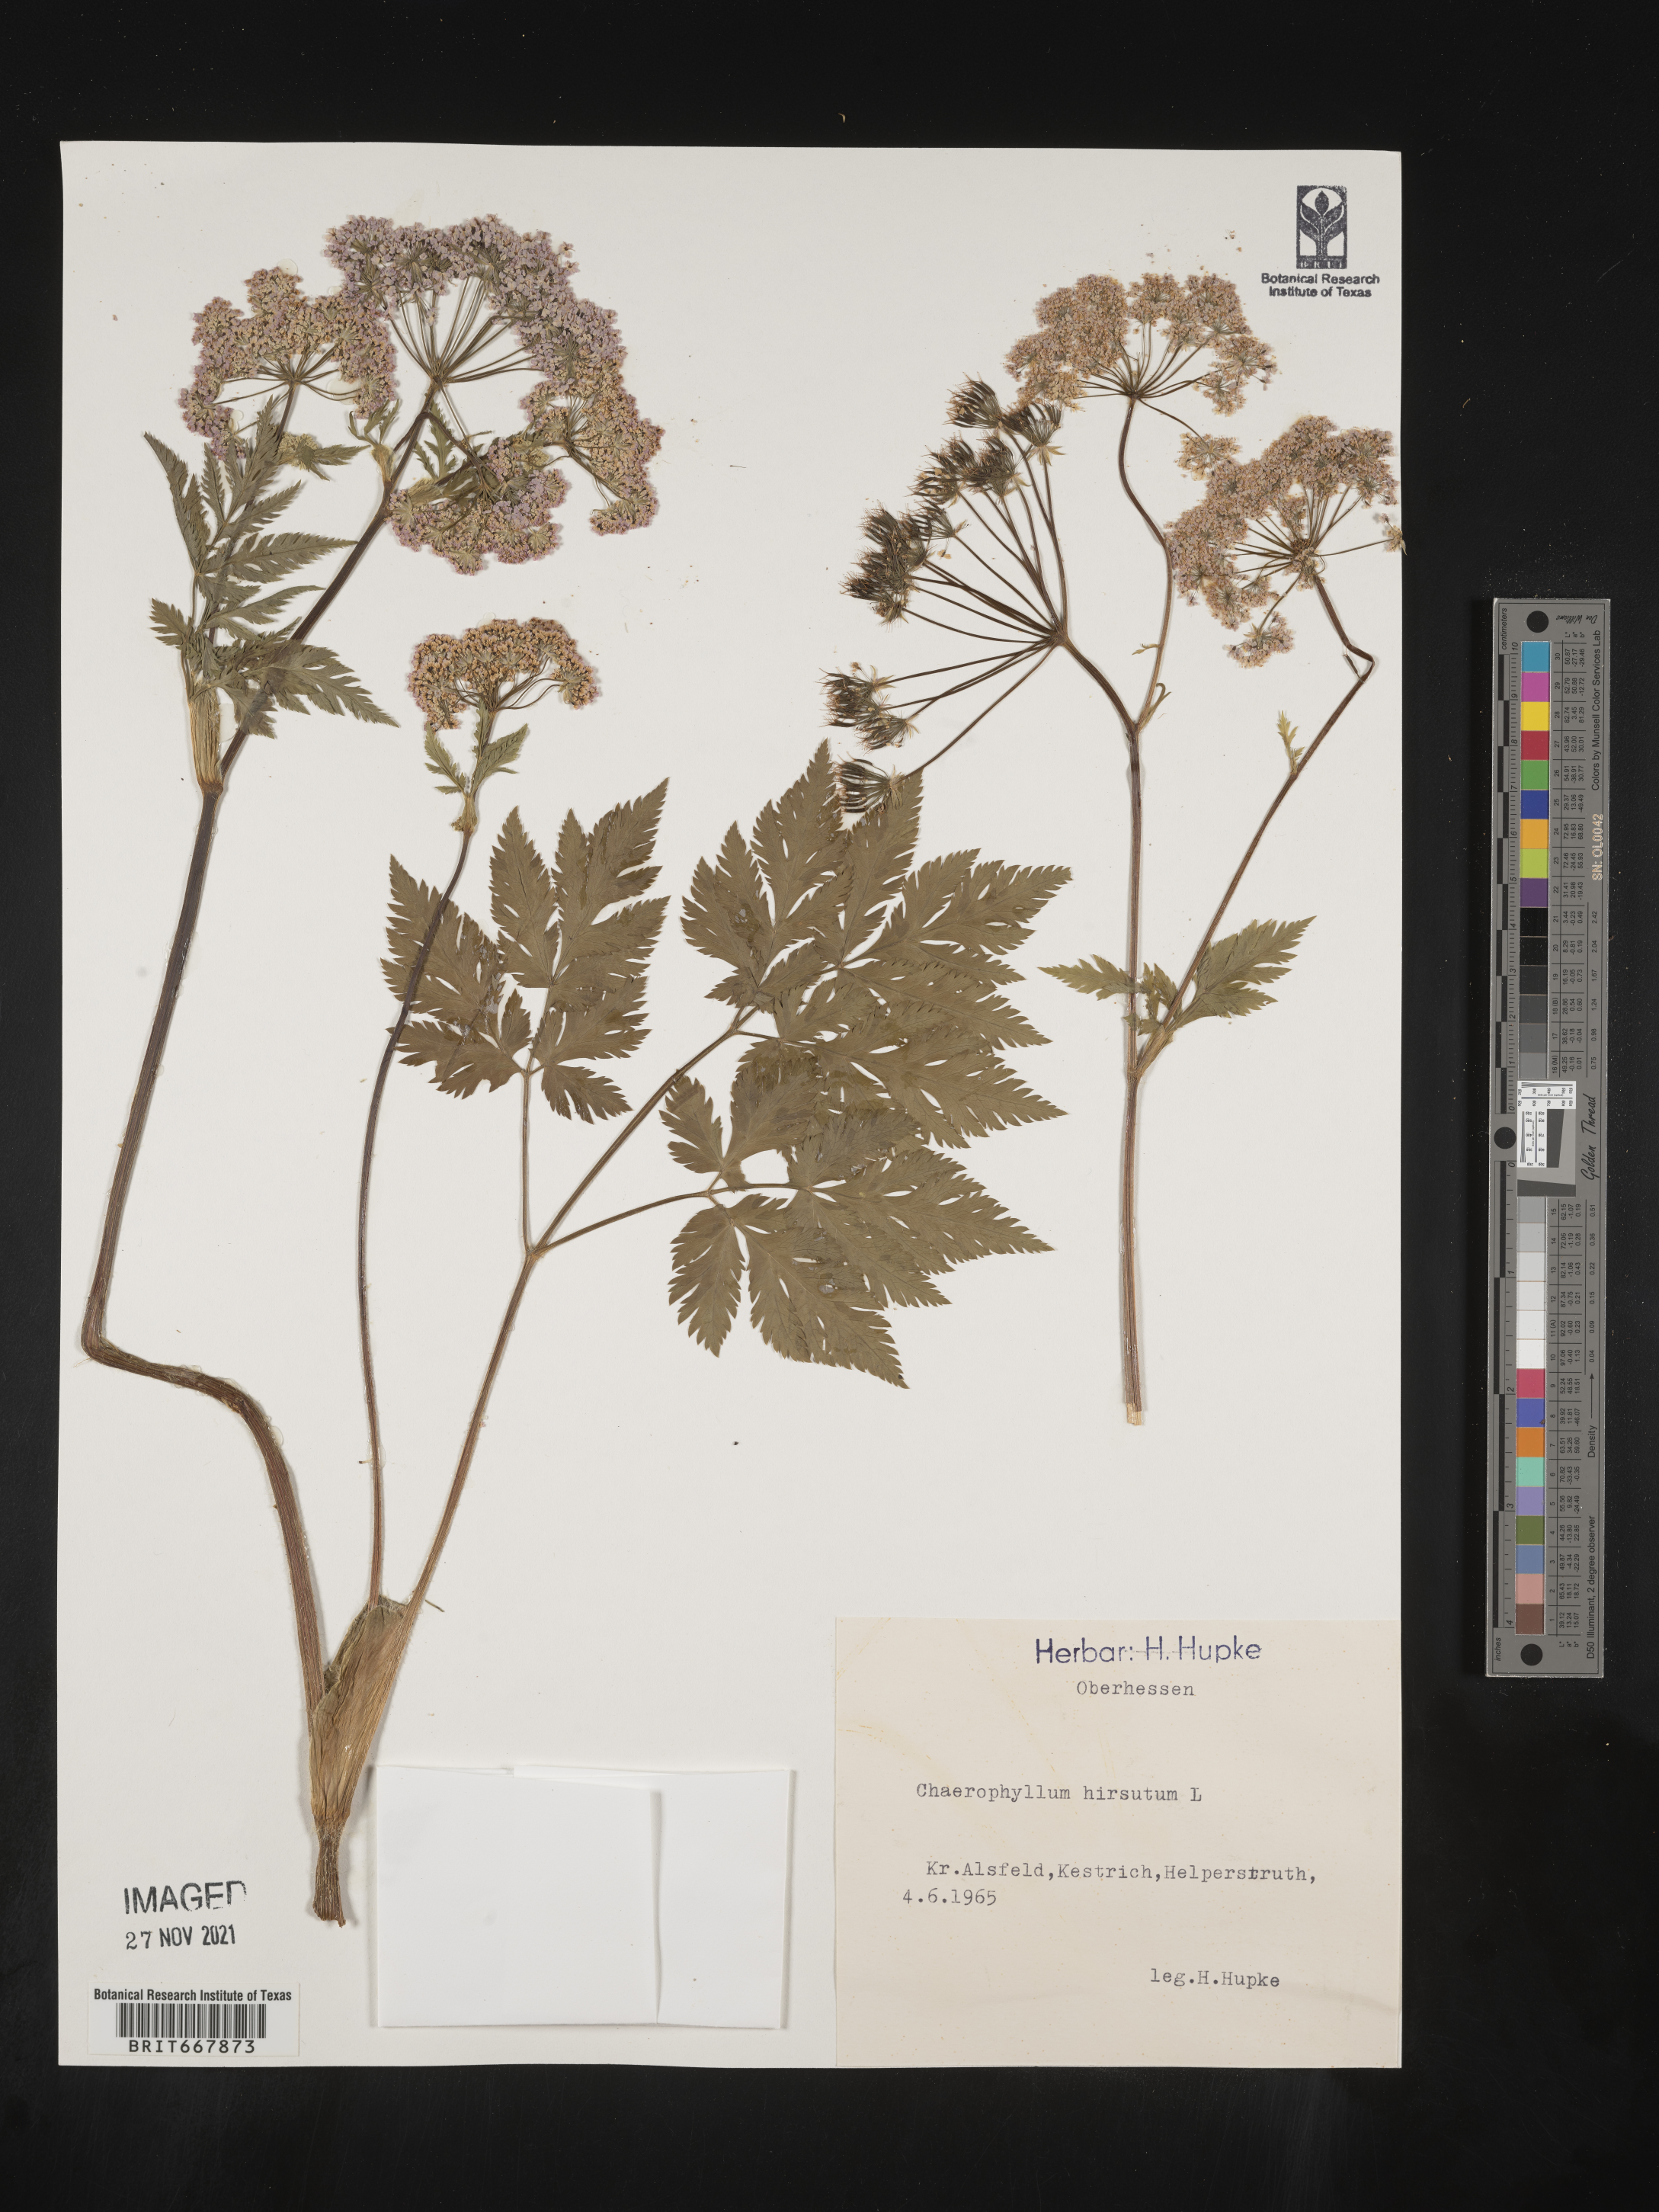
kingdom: Plantae
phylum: Tracheophyta
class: Magnoliopsida
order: Apiales
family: Apiaceae
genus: Chaerophyllum
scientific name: Chaerophyllum
